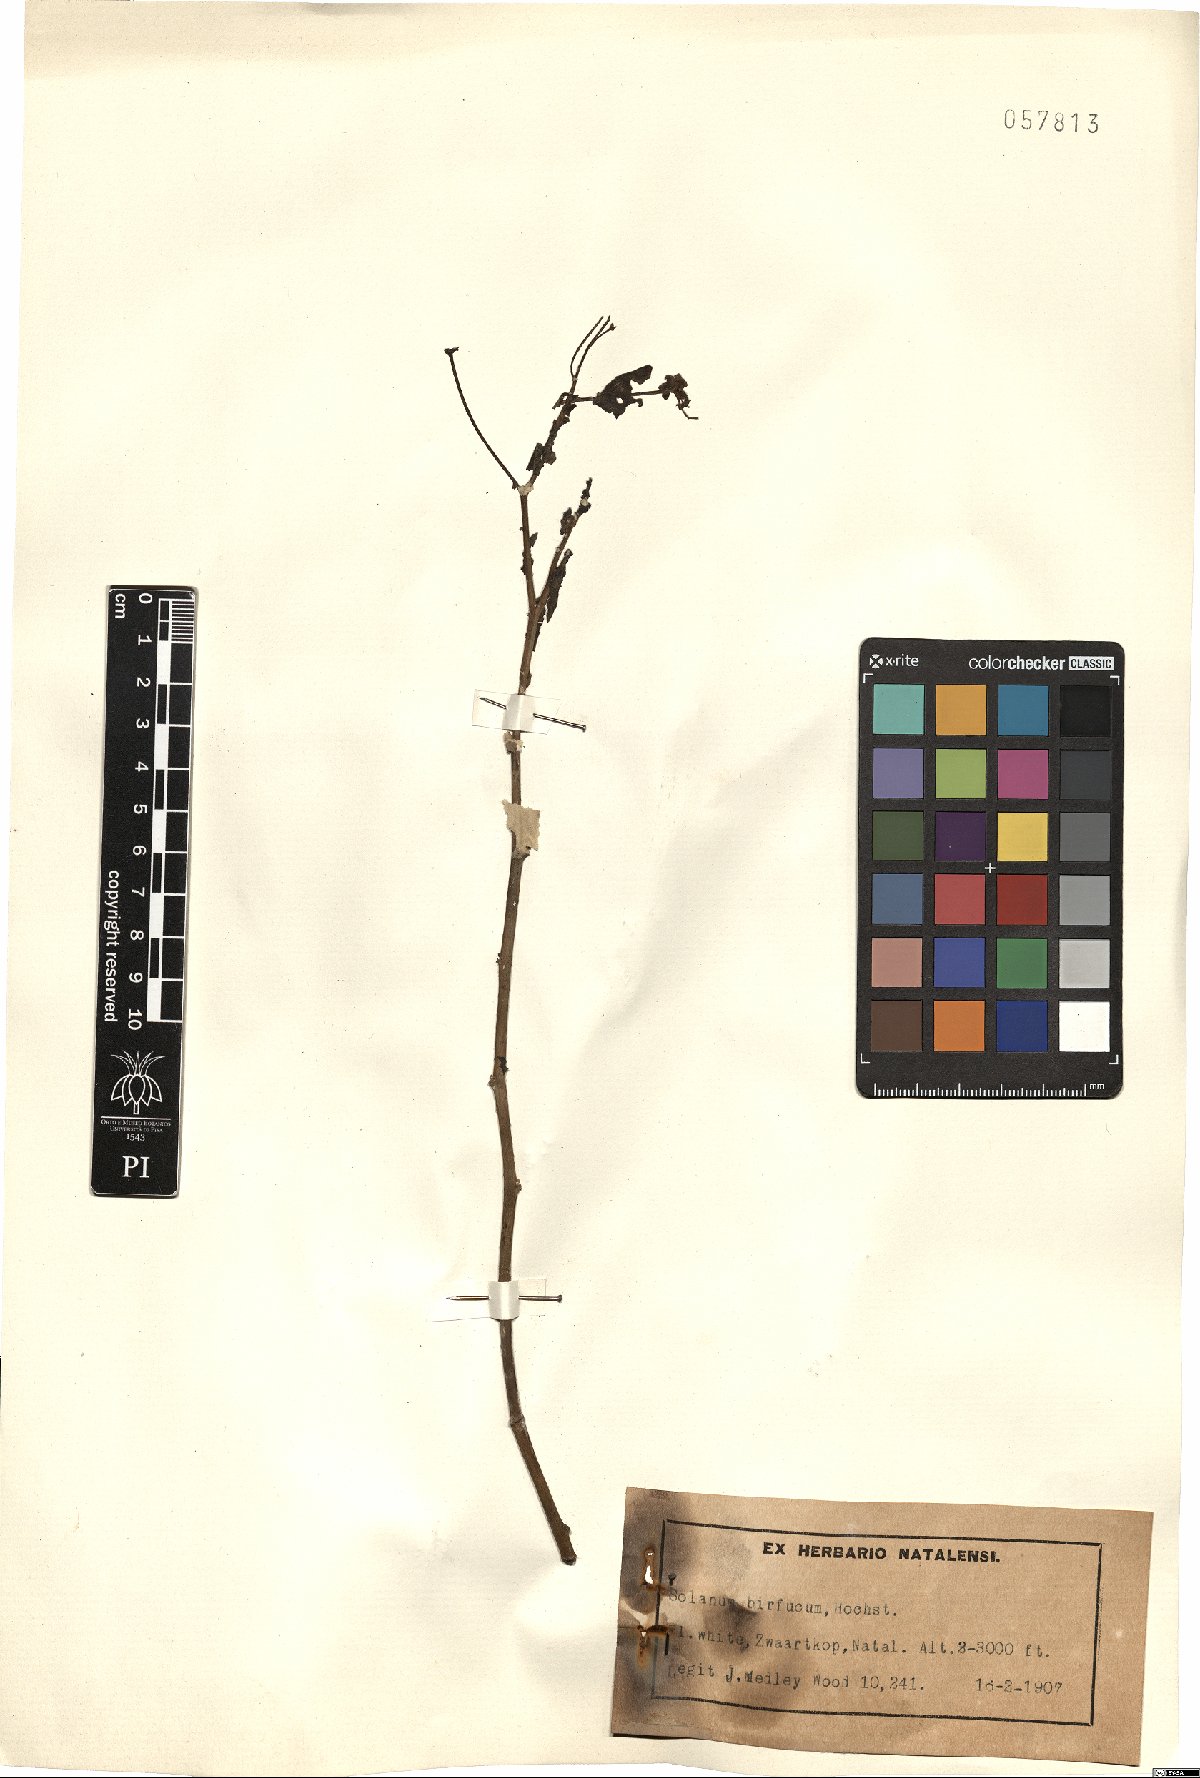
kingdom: Plantae
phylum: Tracheophyta
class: Magnoliopsida
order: Solanales
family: Solanaceae
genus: Solanum
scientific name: Solanum terminale
